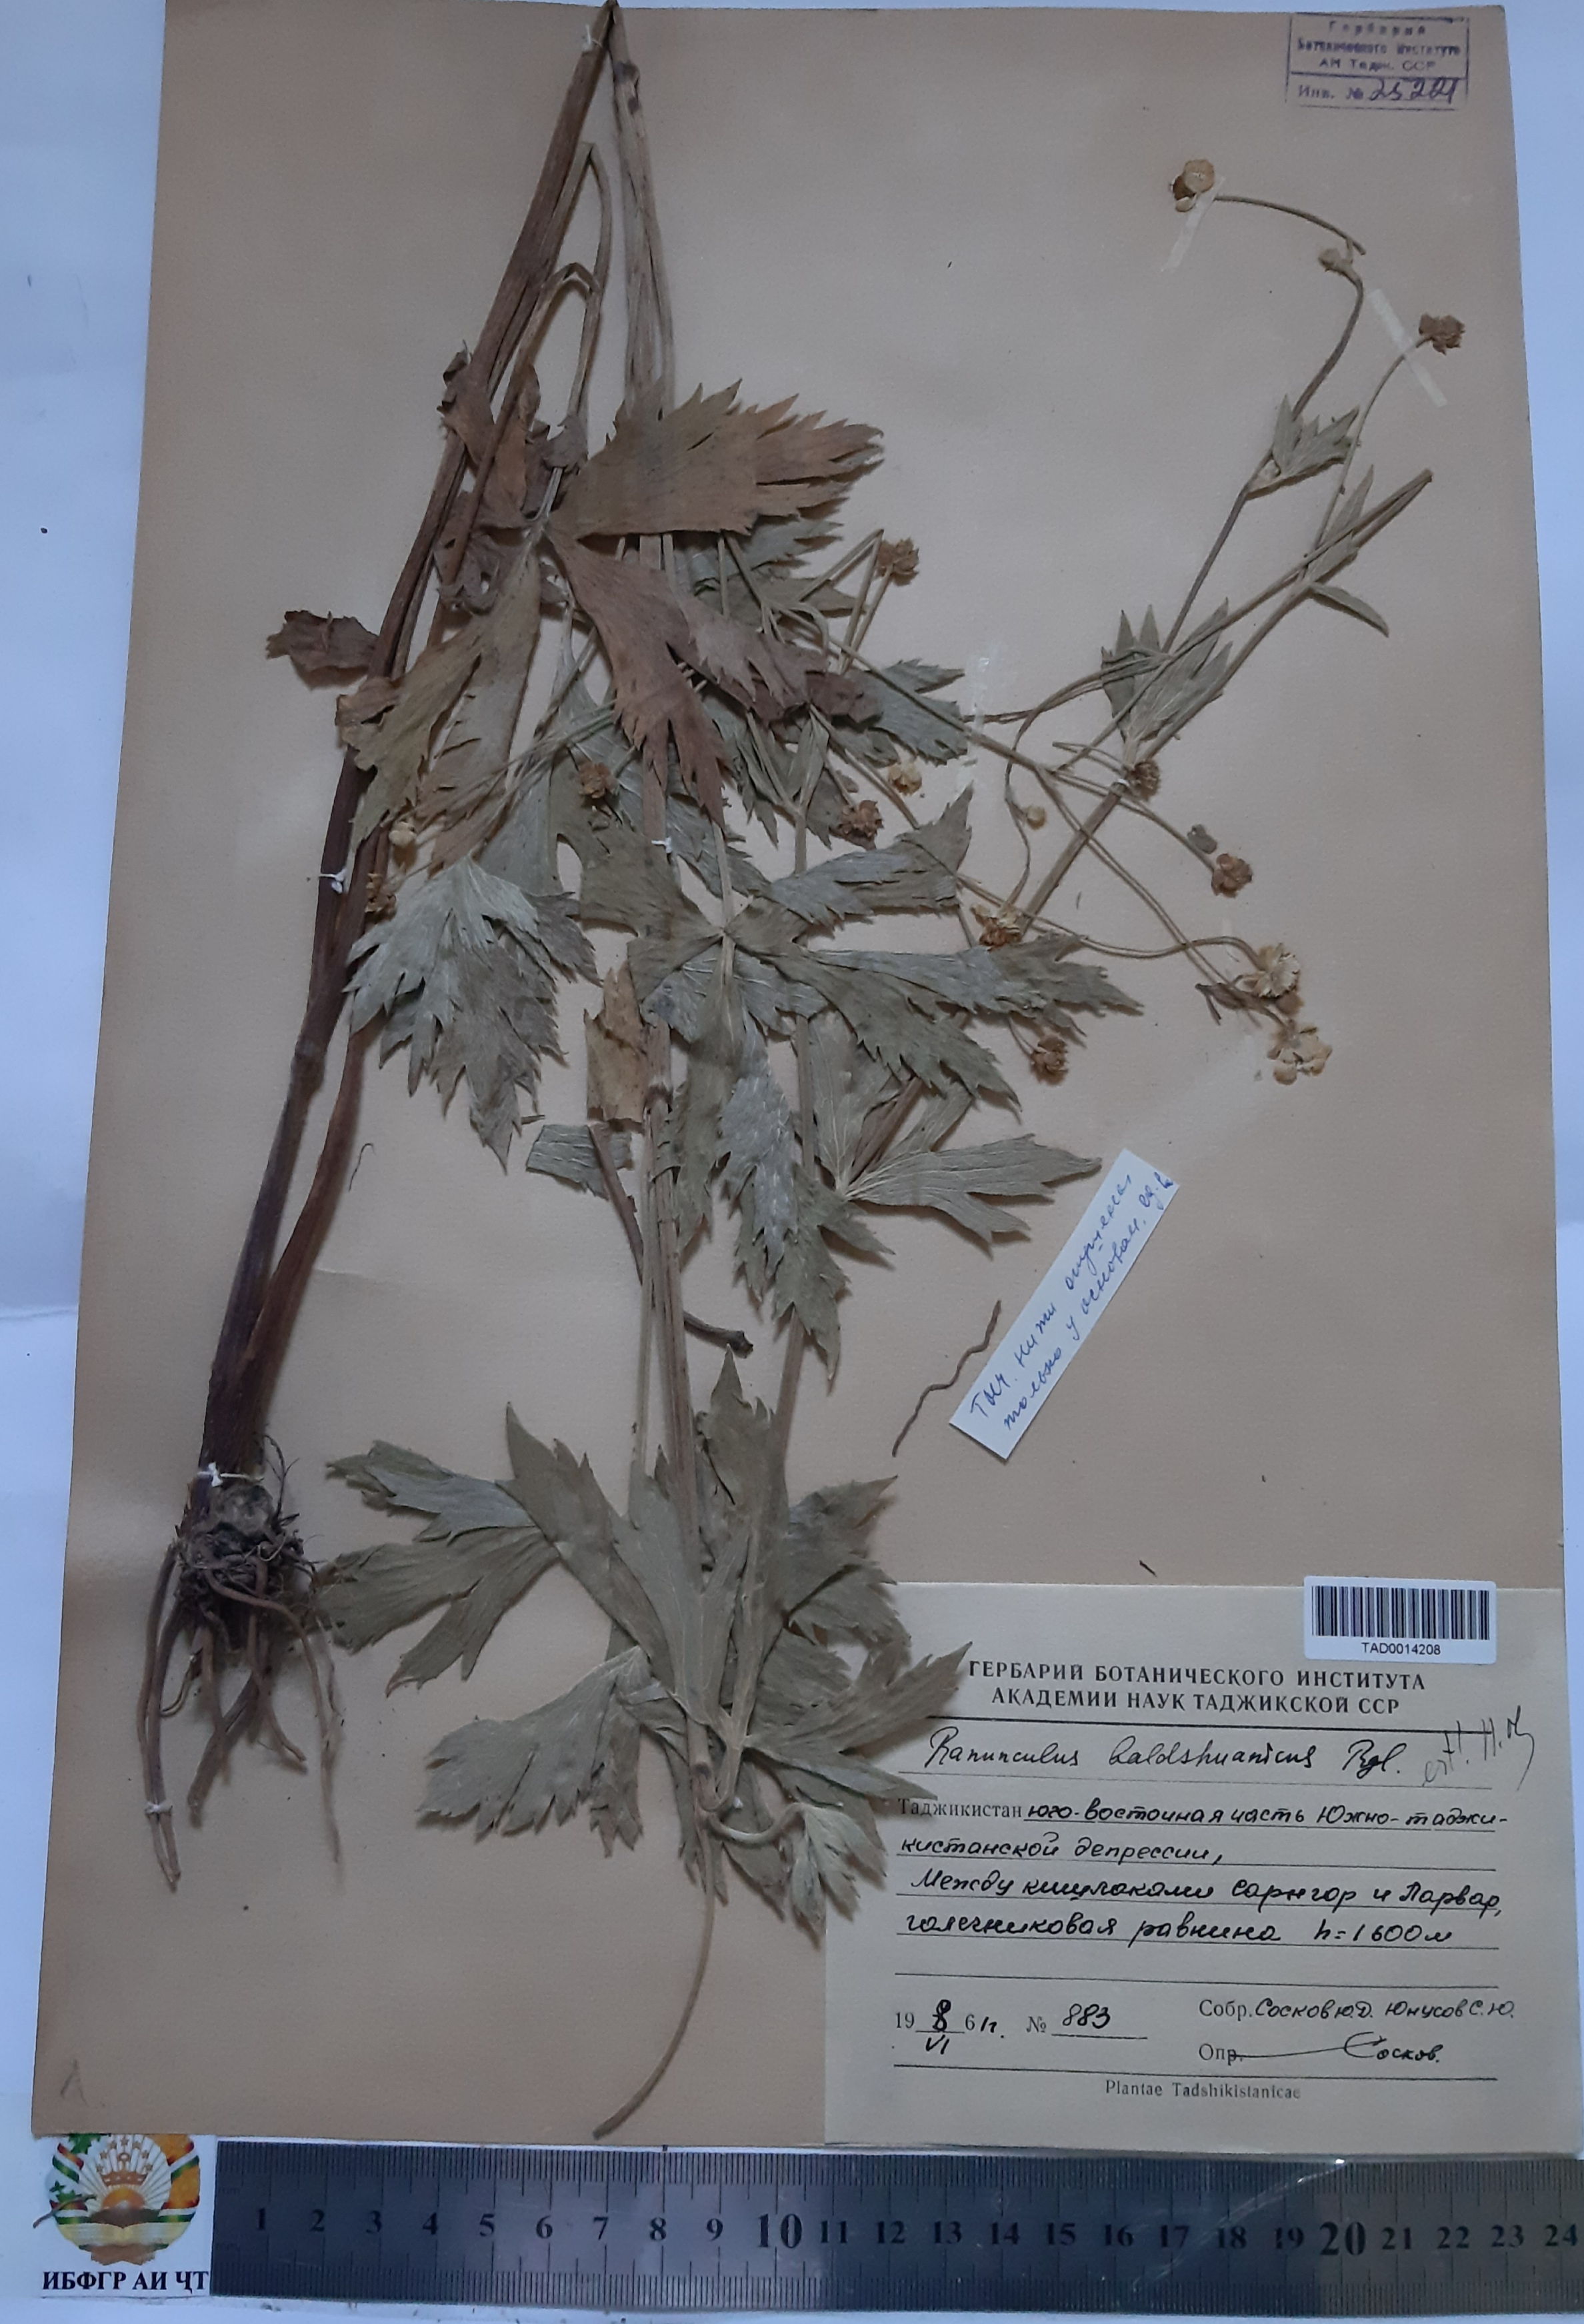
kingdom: Plantae
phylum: Tracheophyta
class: Magnoliopsida
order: Ranunculales
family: Ranunculaceae
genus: Ranunculus
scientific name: Ranunculus baldshuanicus
